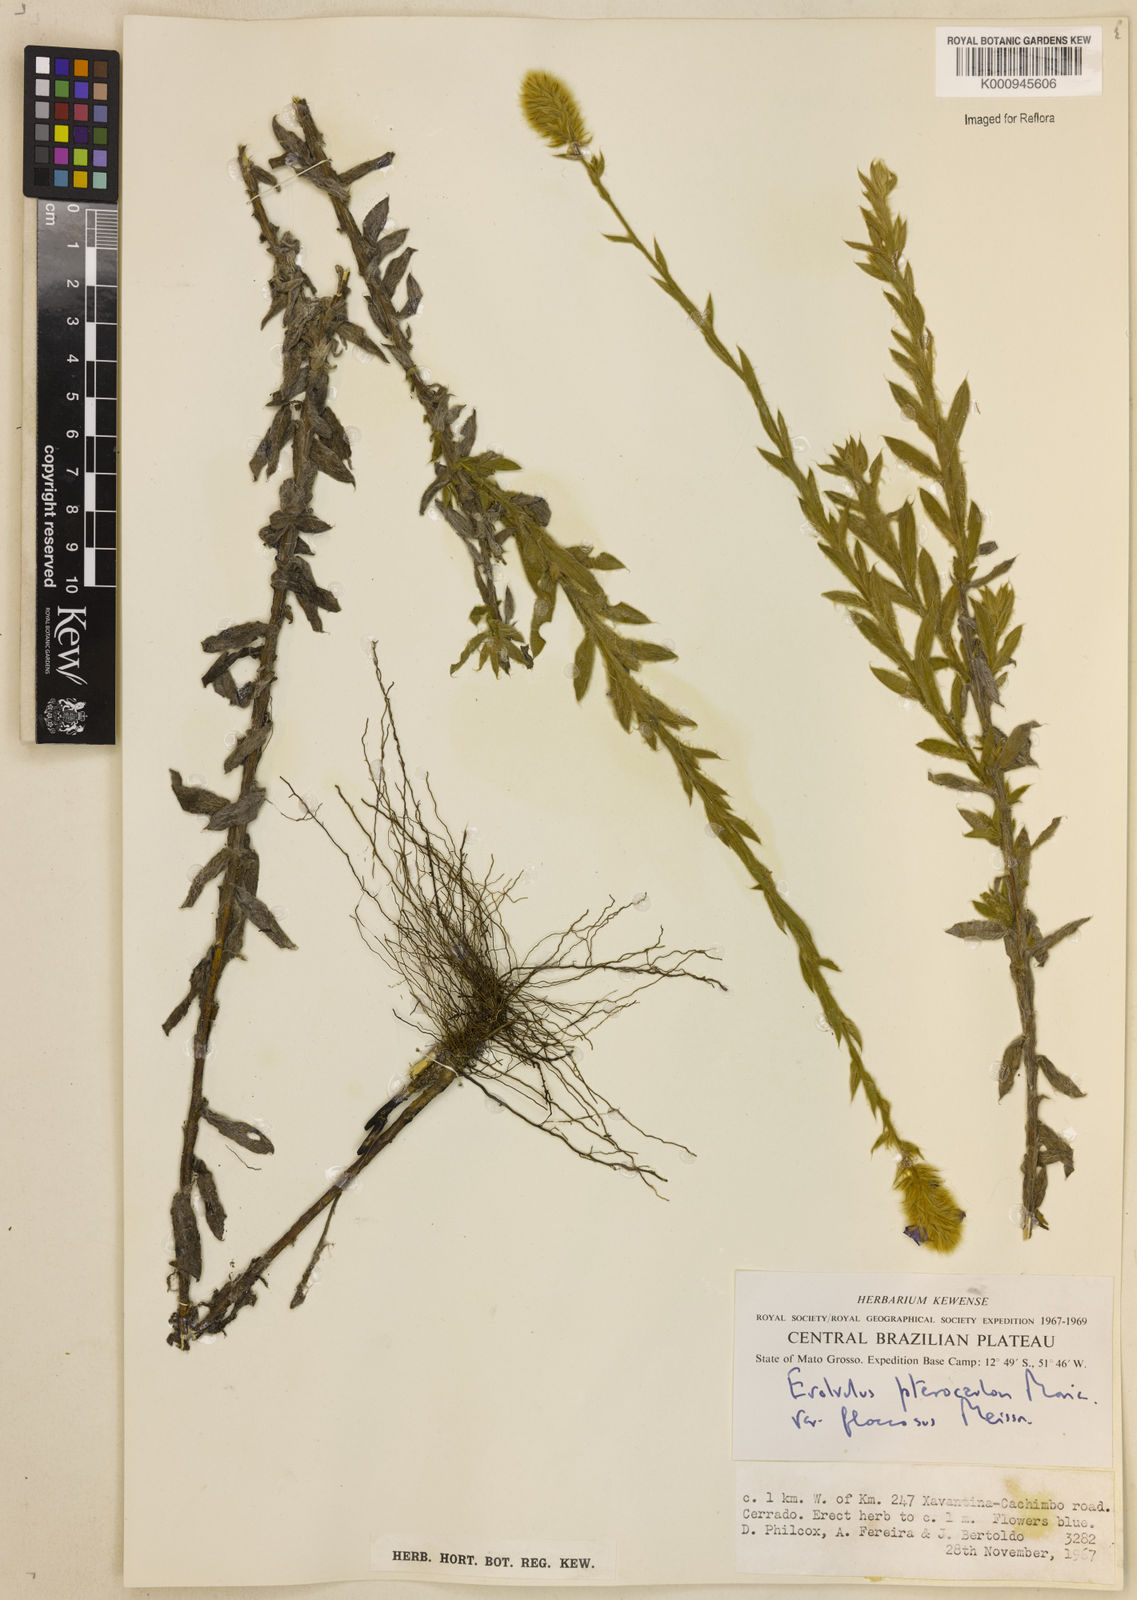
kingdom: Plantae
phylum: Tracheophyta
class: Magnoliopsida
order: Solanales
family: Convolvulaceae
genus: Evolvulus
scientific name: Evolvulus pterocaulon
